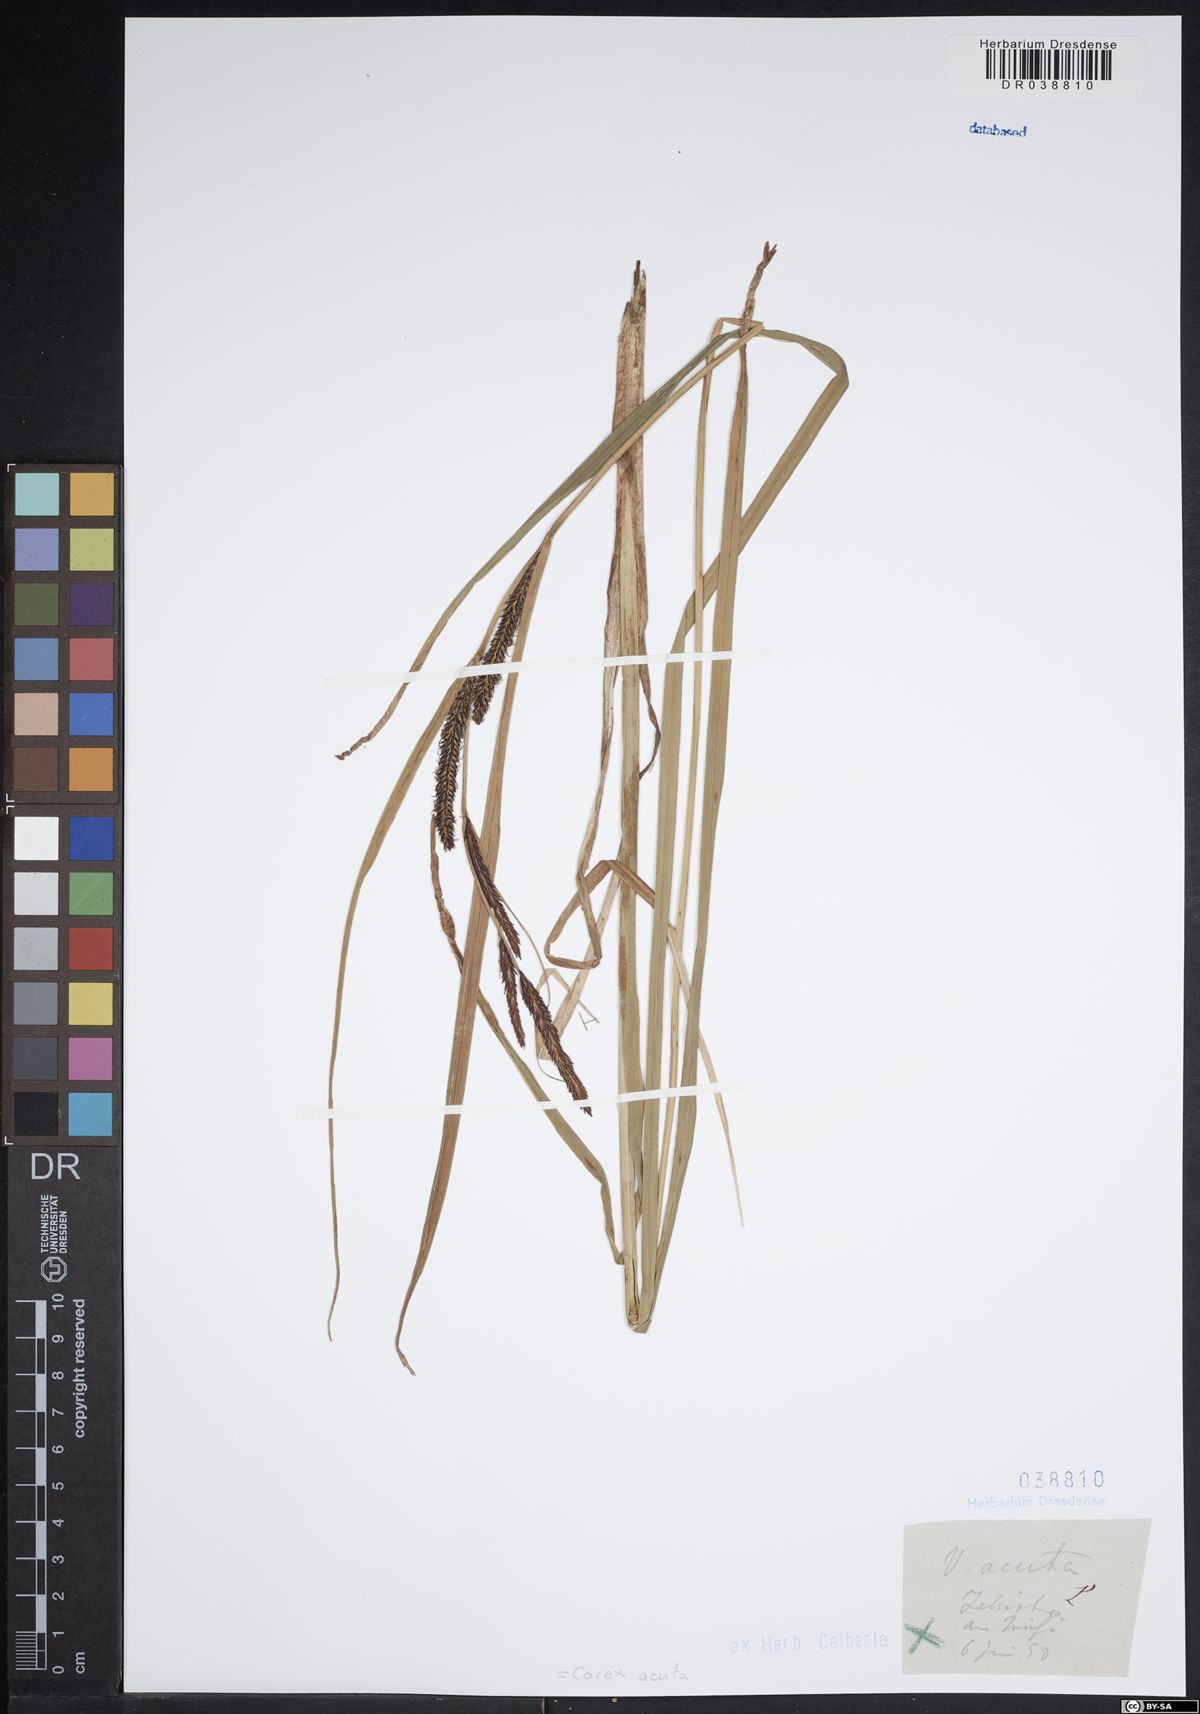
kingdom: Plantae
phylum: Tracheophyta
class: Liliopsida
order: Poales
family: Cyperaceae
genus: Carex
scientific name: Carex acuta
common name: Slender tufted-sedge
